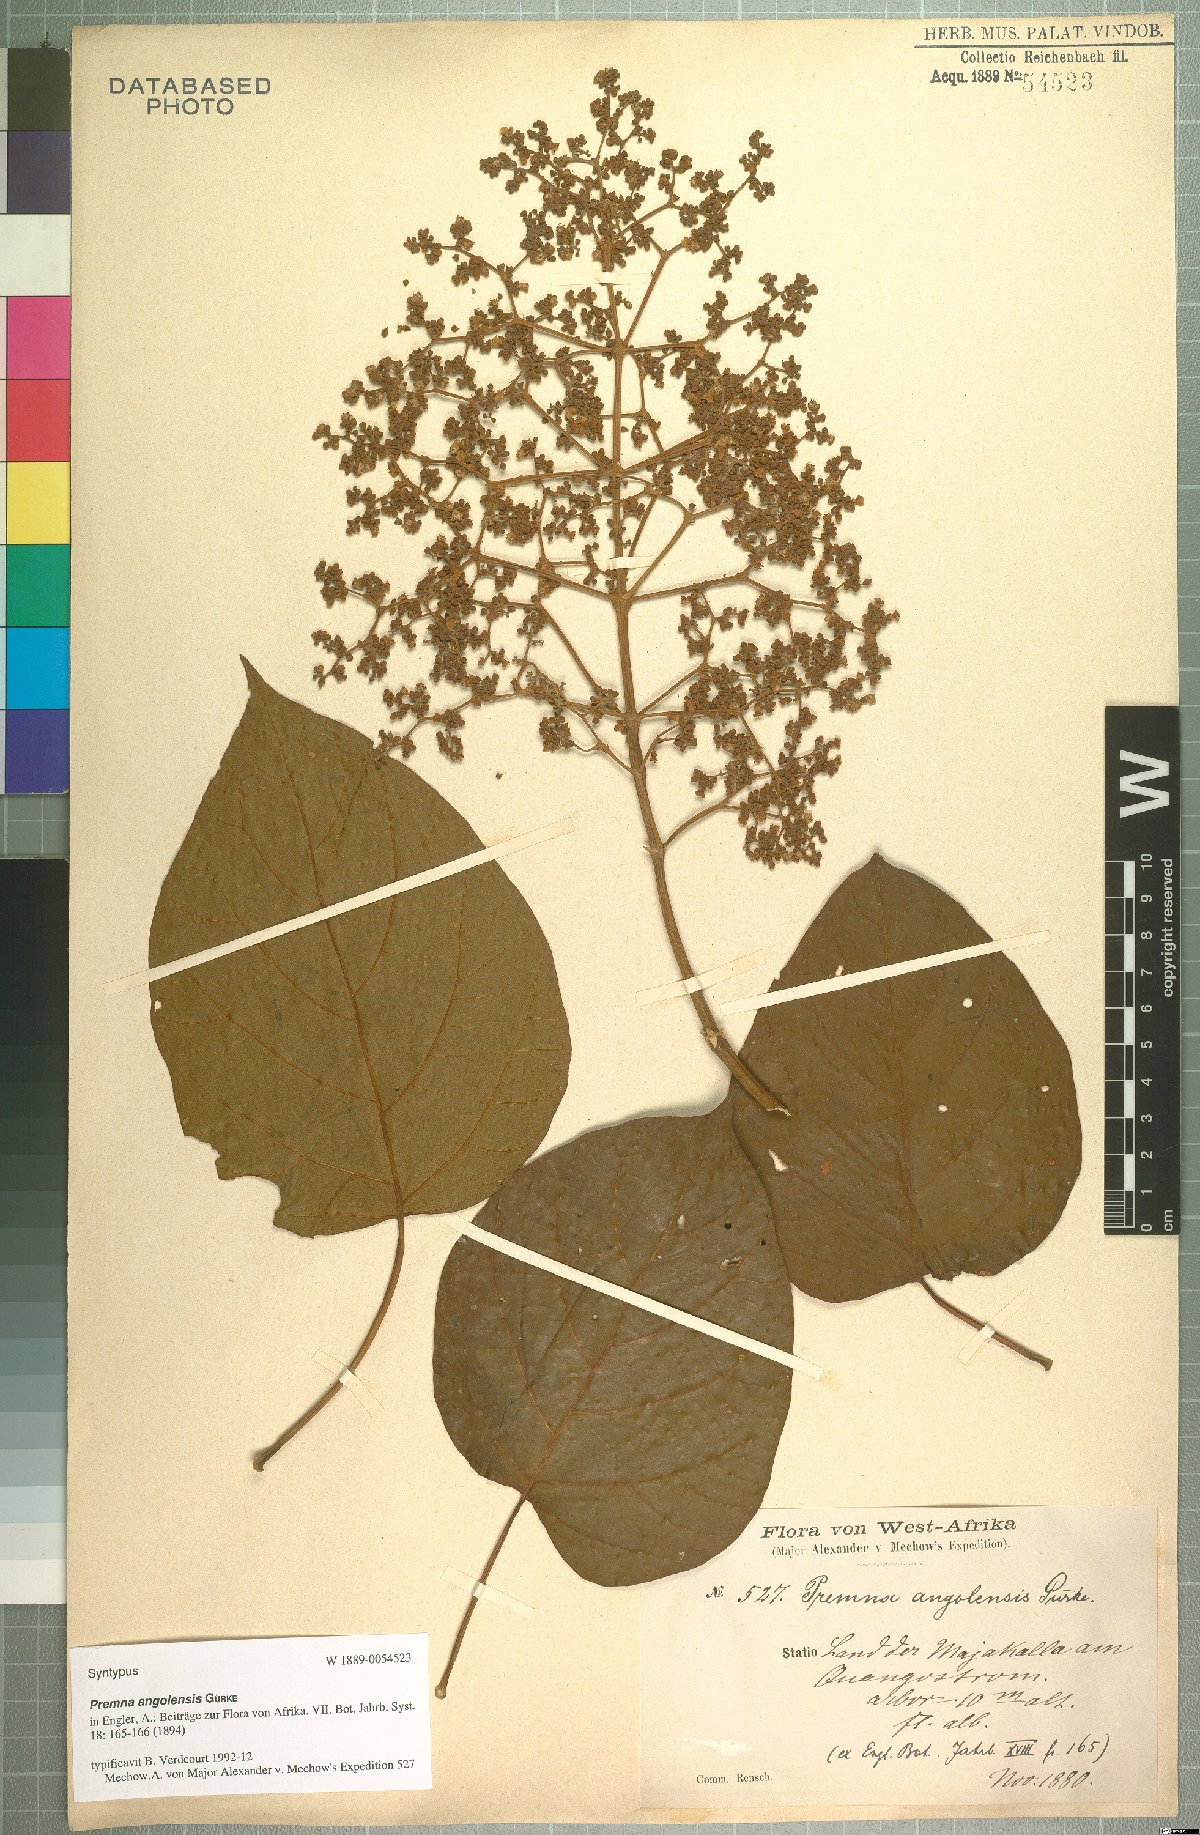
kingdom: Plantae
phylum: Tracheophyta
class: Magnoliopsida
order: Lamiales
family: Lamiaceae
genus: Premna
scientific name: Premna angolensis
